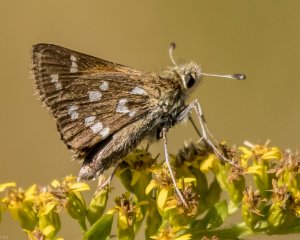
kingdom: Animalia
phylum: Arthropoda
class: Insecta
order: Lepidoptera
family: Hesperiidae
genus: Hesperia
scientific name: Hesperia comma
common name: Common Branded Skipper
